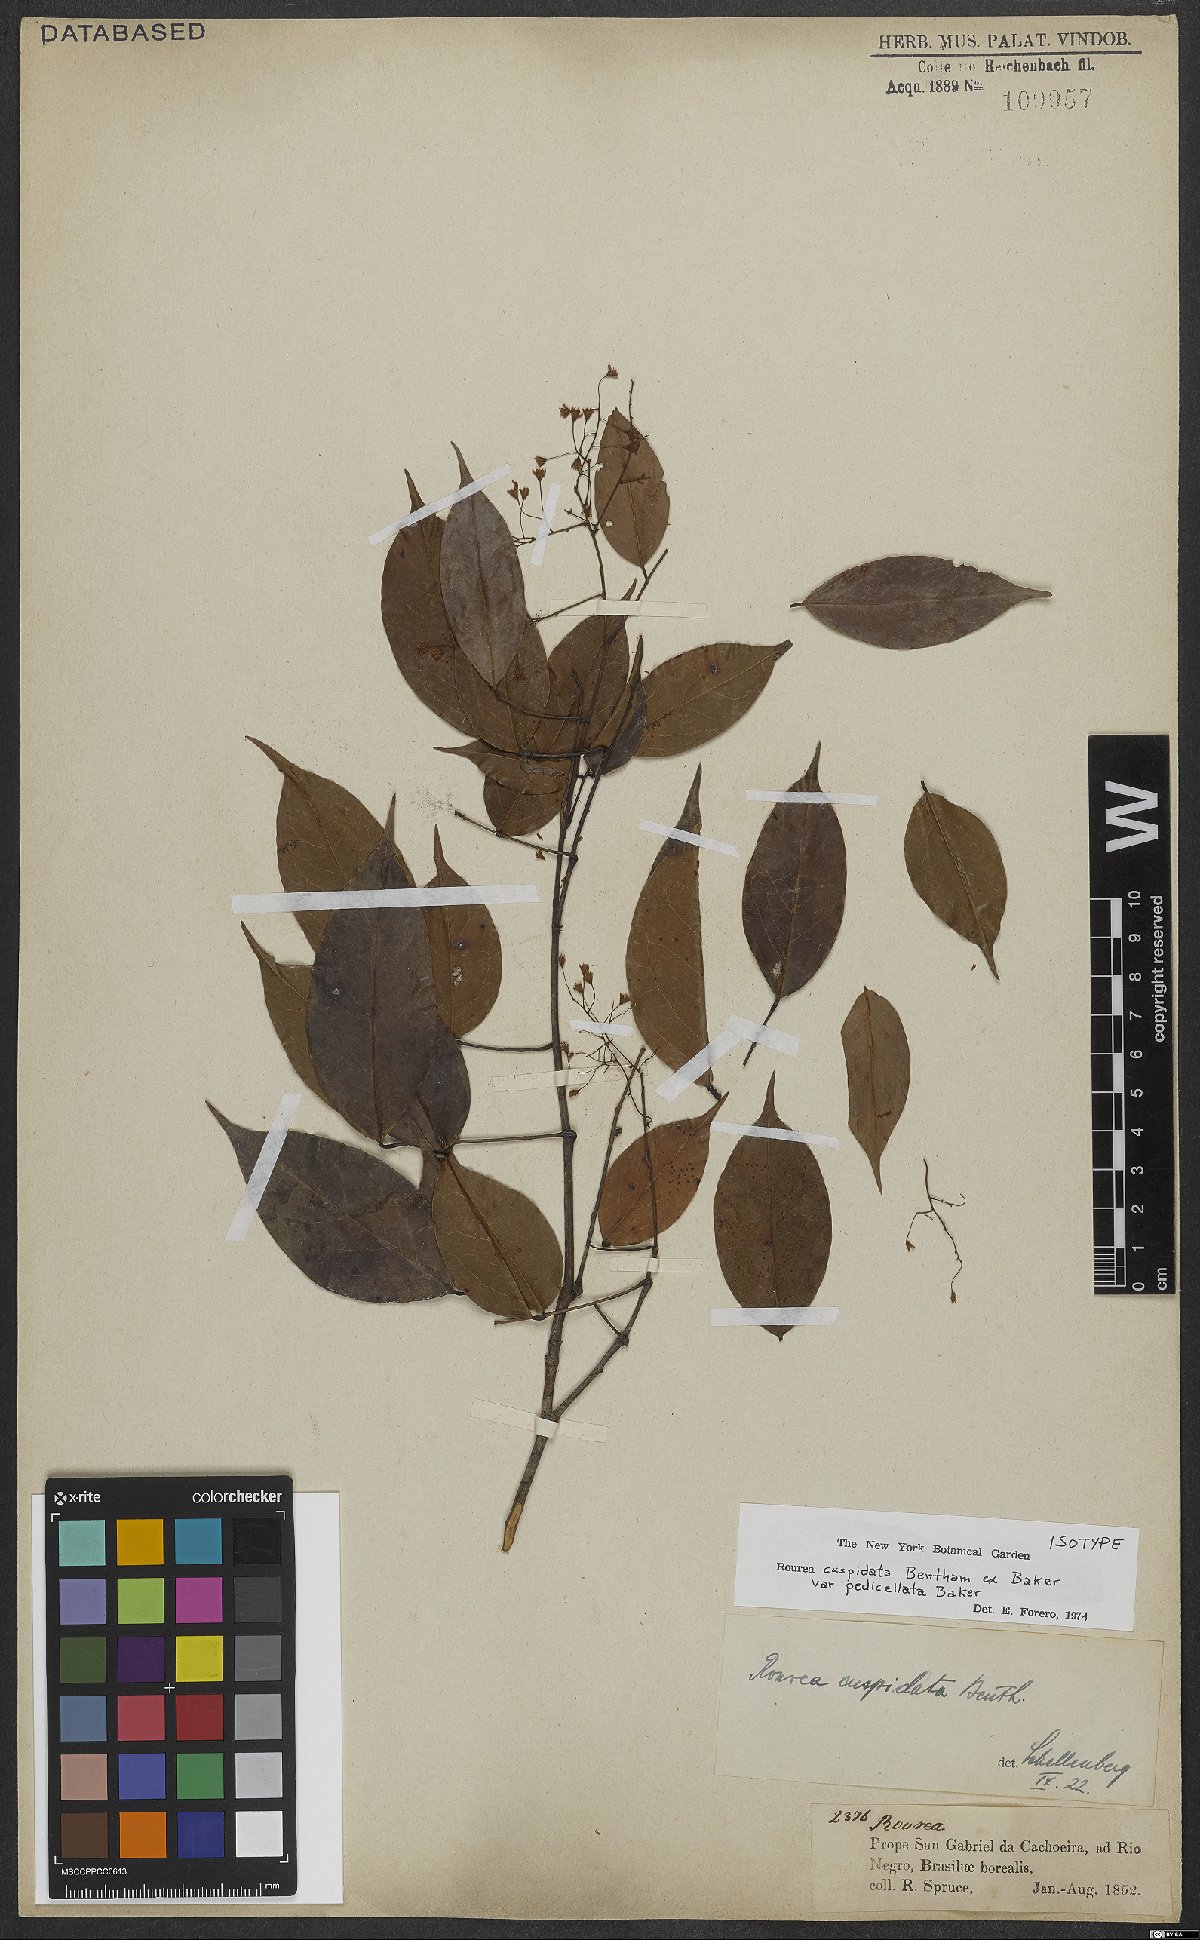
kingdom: Plantae
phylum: Tracheophyta
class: Magnoliopsida
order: Oxalidales
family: Connaraceae
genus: Rourea
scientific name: Rourea cuspidata
